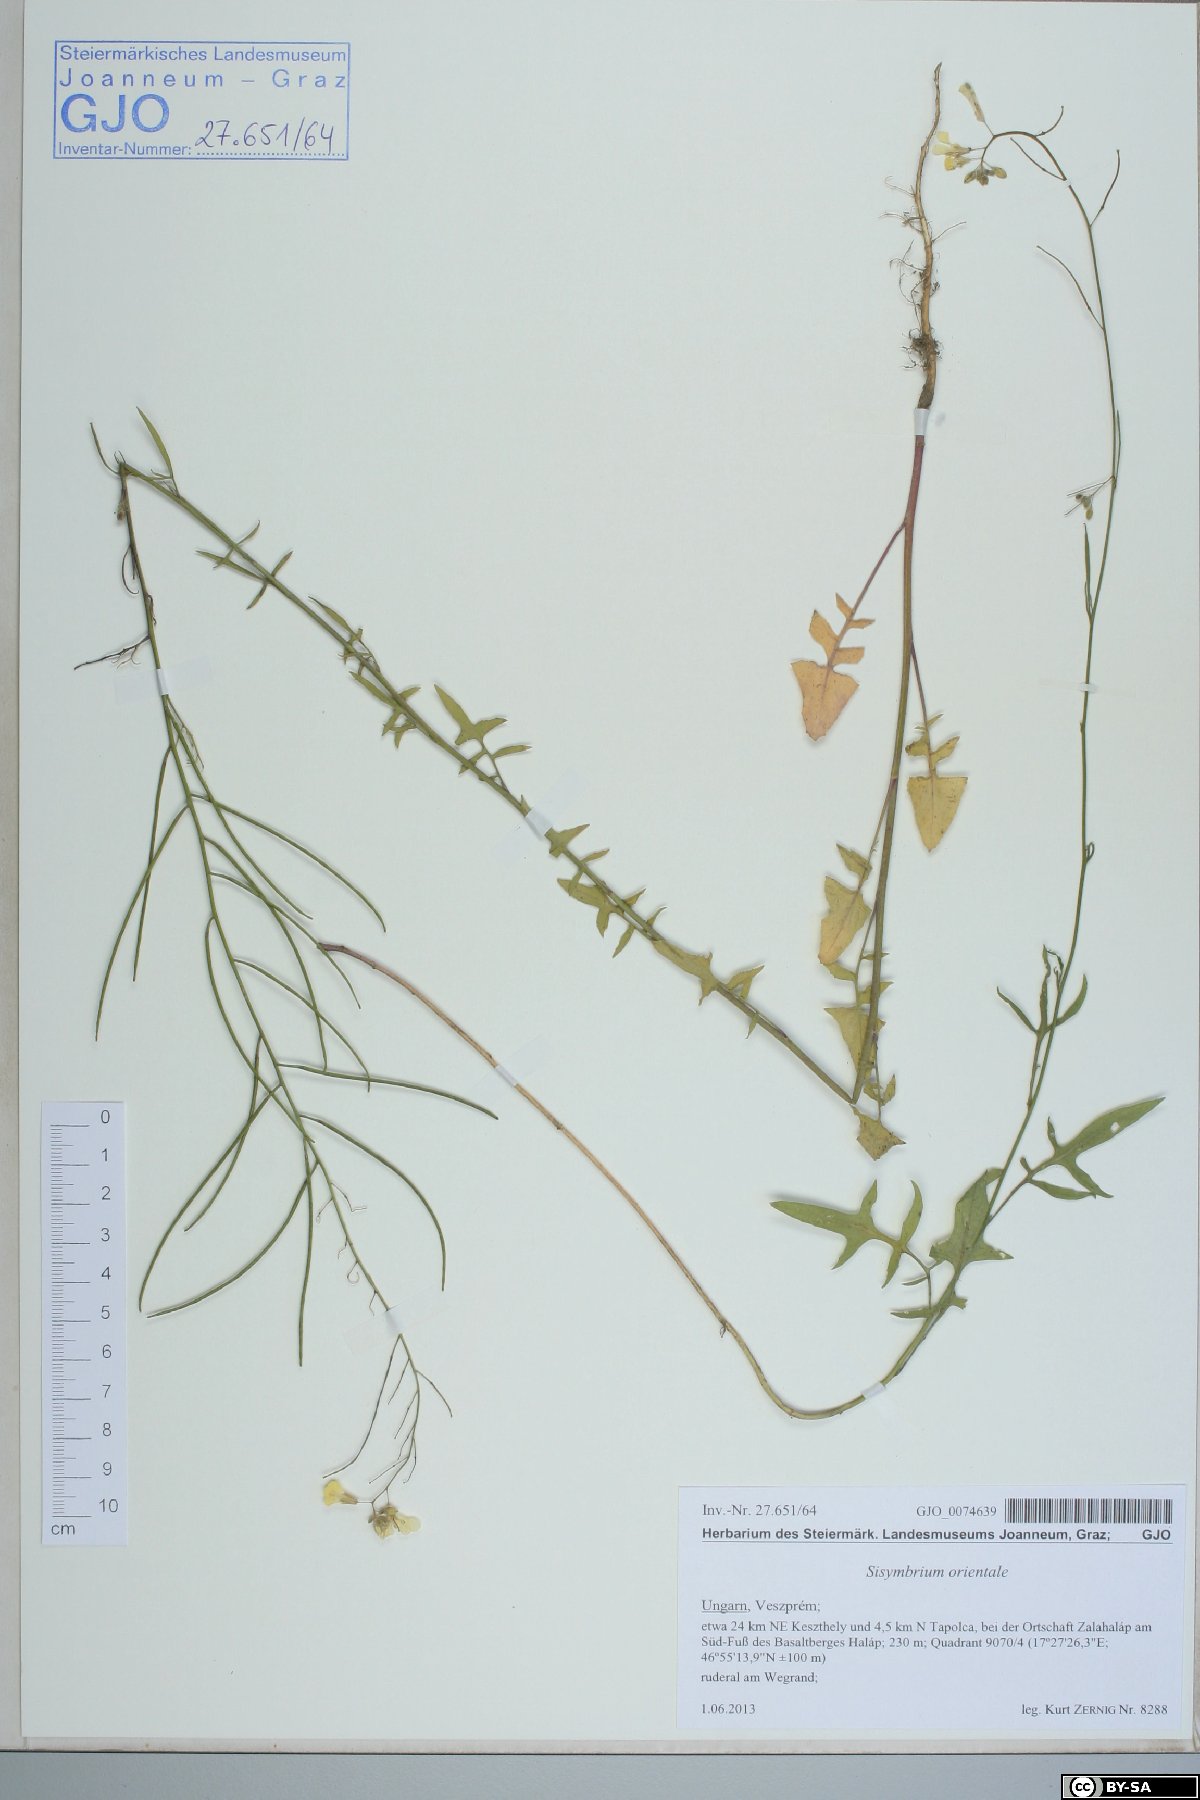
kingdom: Plantae
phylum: Tracheophyta
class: Magnoliopsida
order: Brassicales
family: Brassicaceae
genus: Sisymbrium
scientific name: Sisymbrium orientale
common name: Eastern rocket
